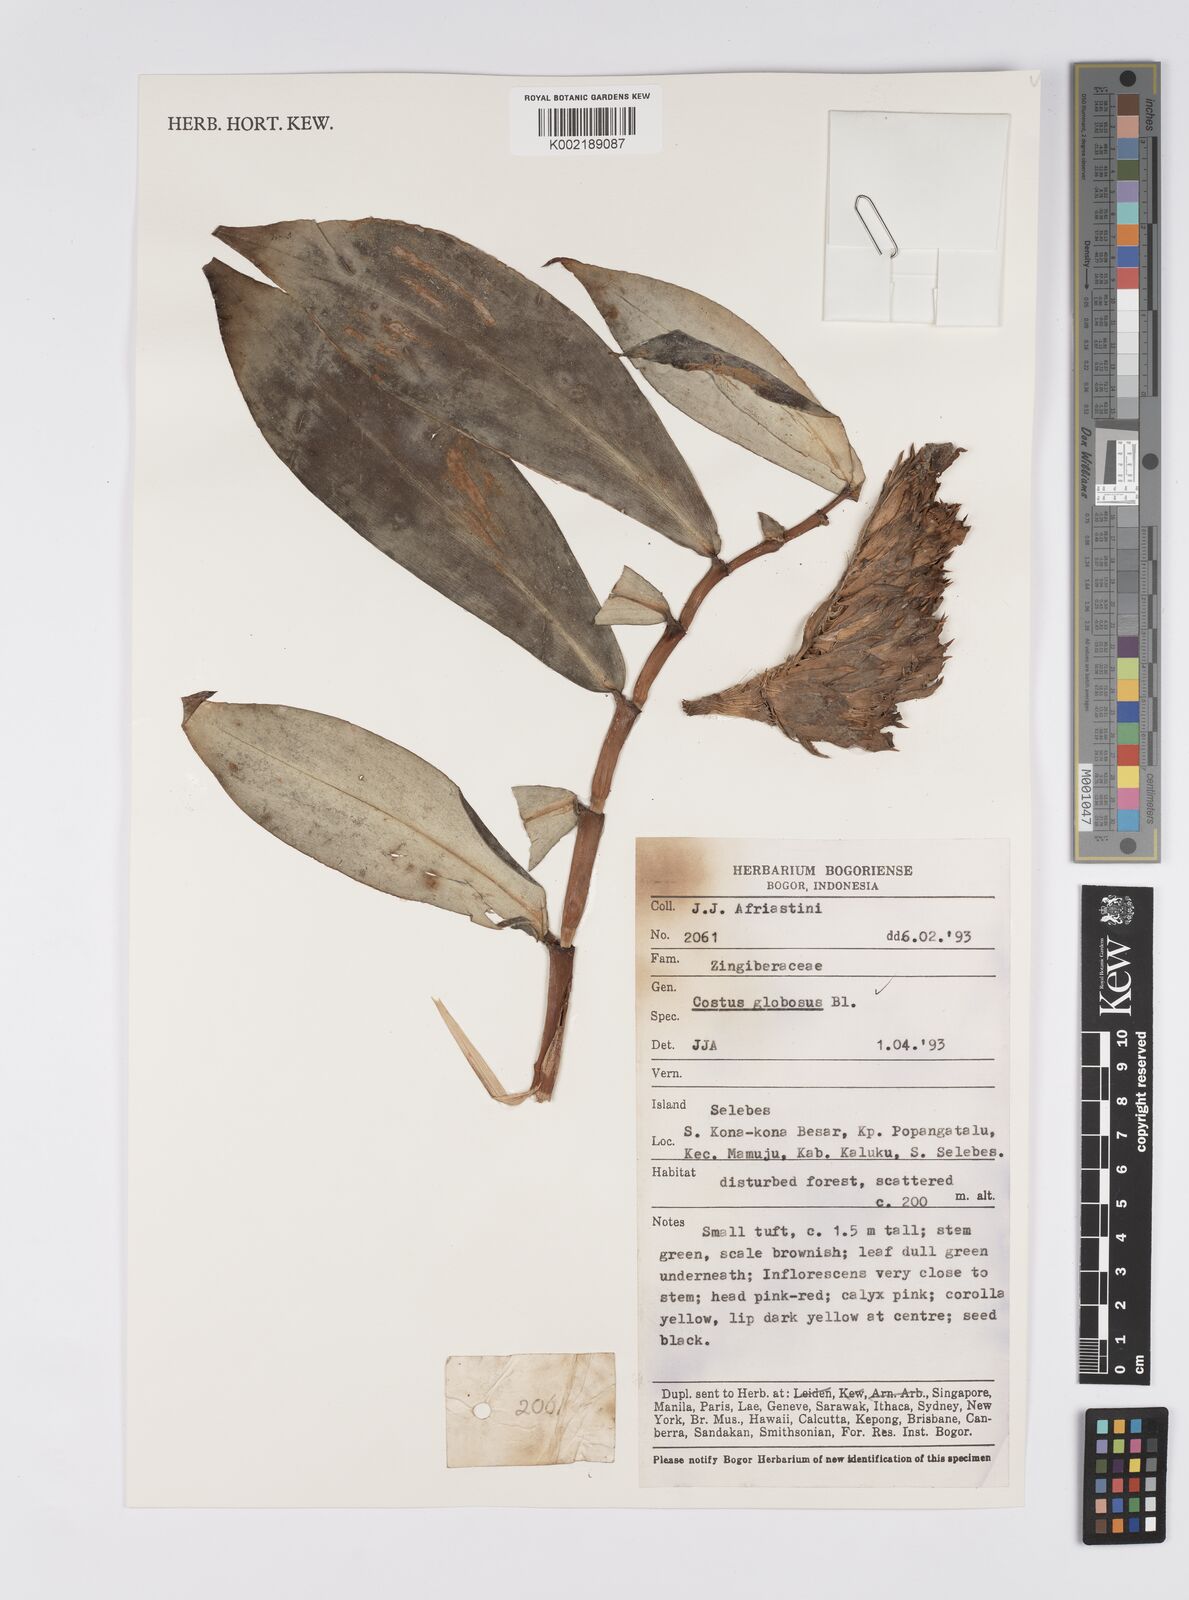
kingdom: Plantae
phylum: Tracheophyta
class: Liliopsida
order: Zingiberales
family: Costaceae
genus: Hellenia
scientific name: Hellenia globosa
